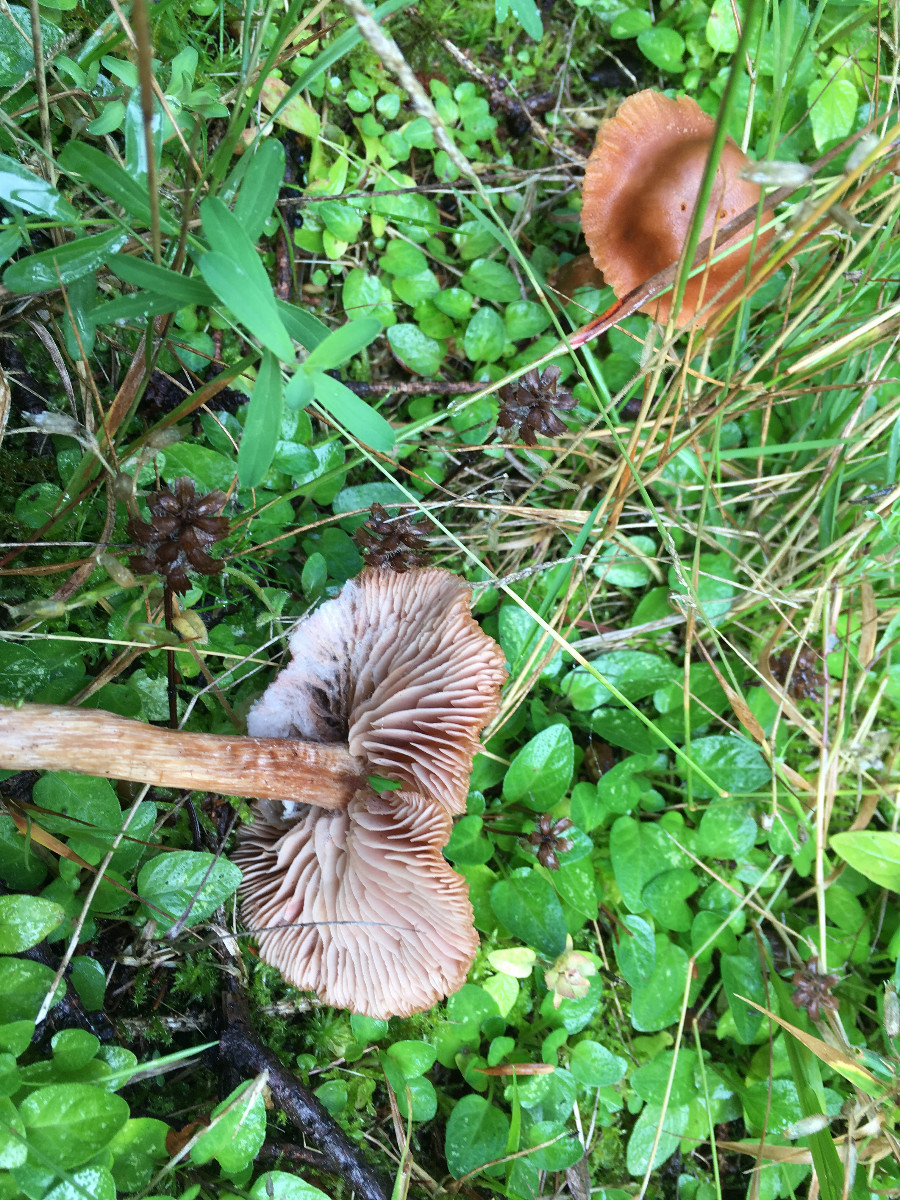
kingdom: Fungi
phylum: Basidiomycota
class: Agaricomycetes
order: Agaricales
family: Hydnangiaceae
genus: Laccaria
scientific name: Laccaria
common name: ametysthat
